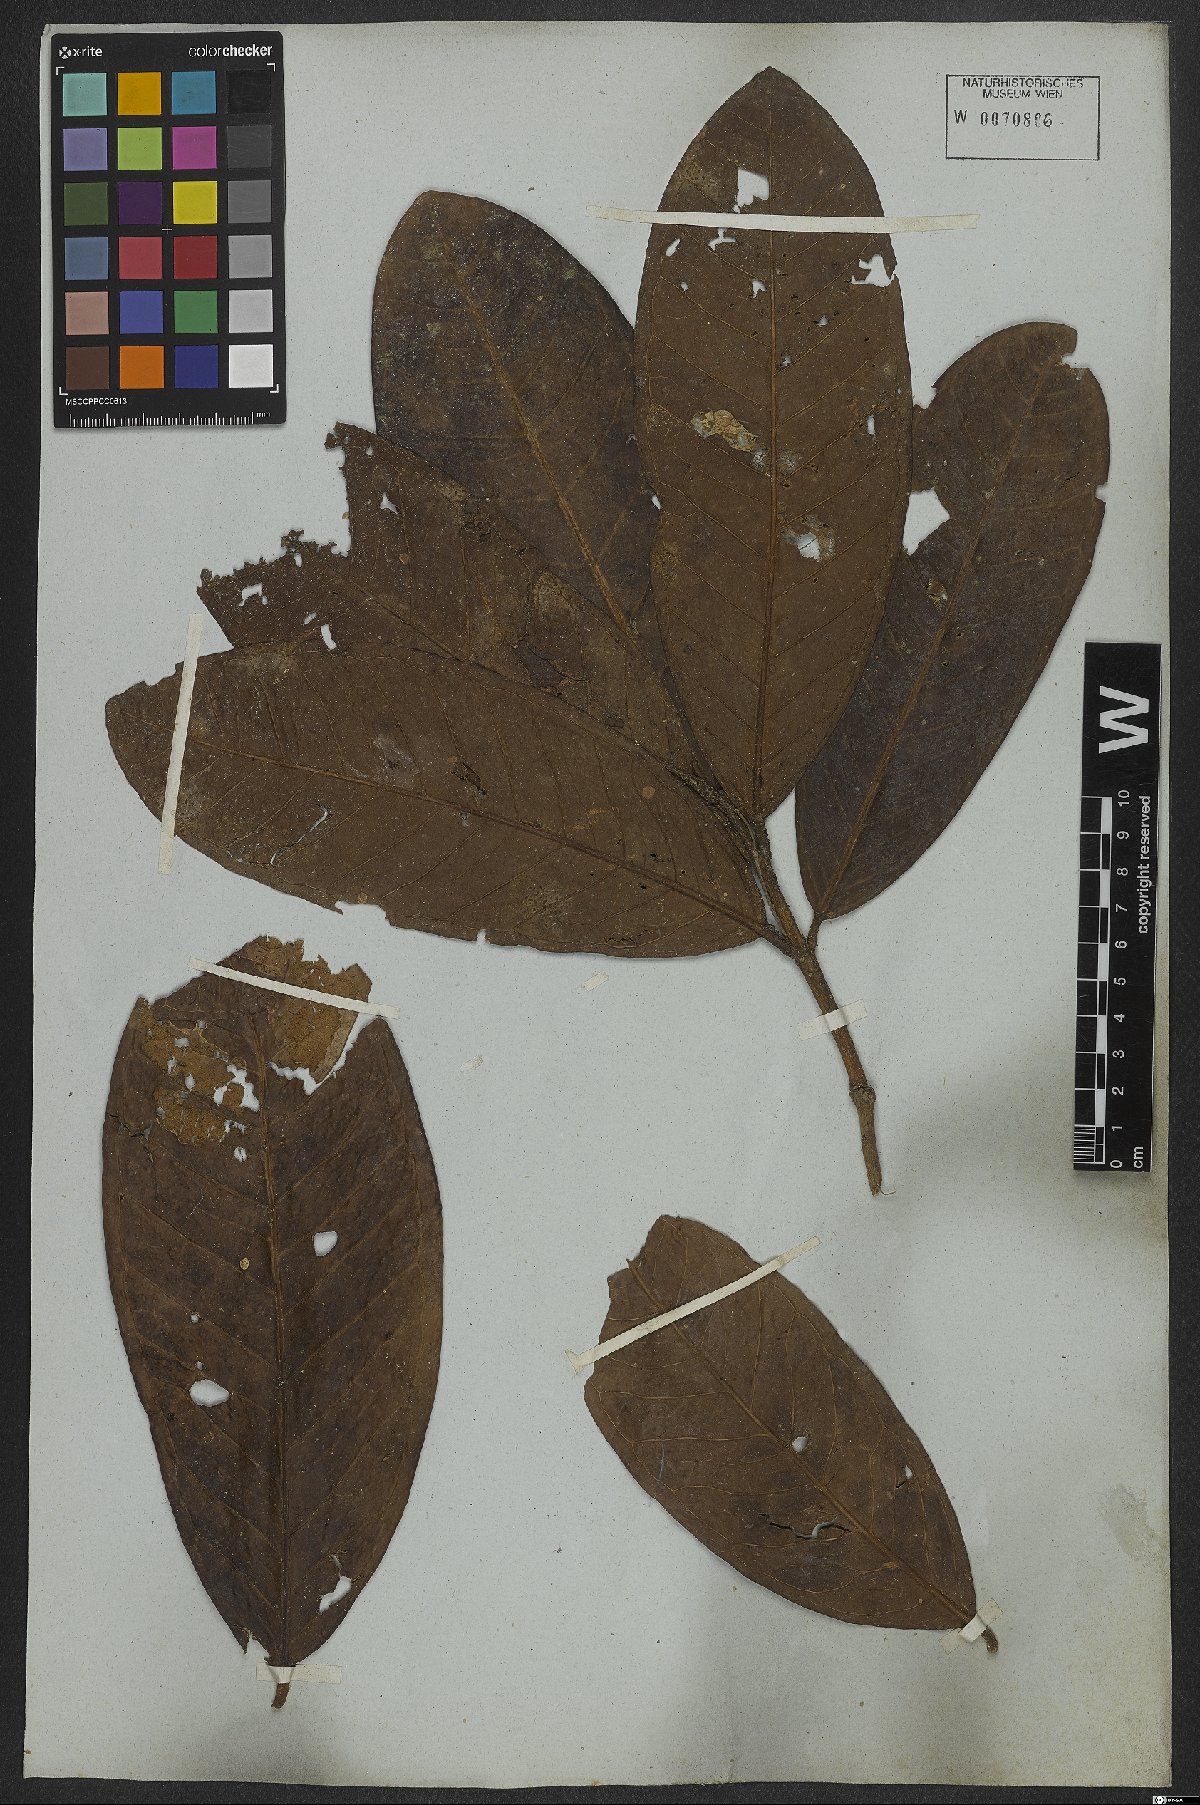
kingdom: Plantae
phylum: Tracheophyta
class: Magnoliopsida
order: Myrtales
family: Myrtaceae
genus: Eugenia
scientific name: Eugenia umbrosa
